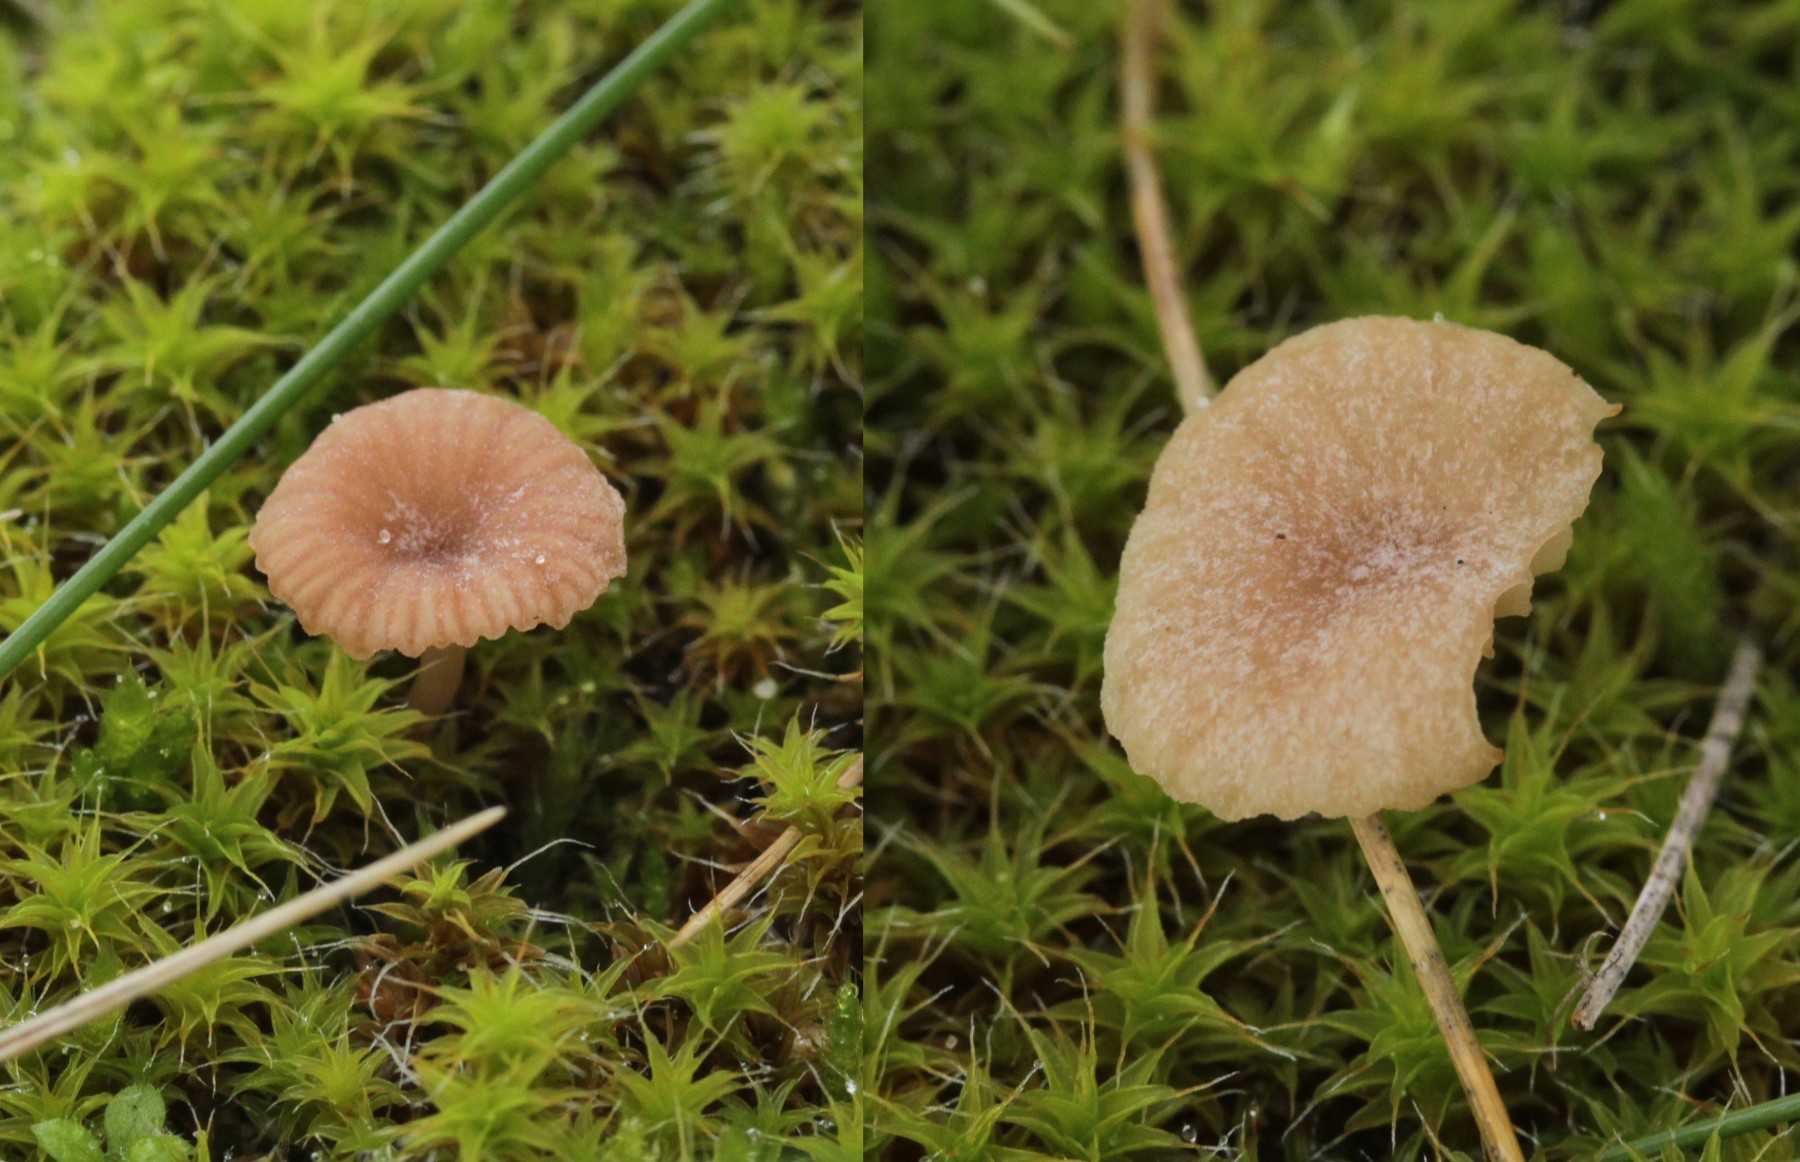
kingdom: Fungi
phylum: Basidiomycota
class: Agaricomycetes
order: Agaricales
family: Tricholomataceae
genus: Omphalina
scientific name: Omphalina
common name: navlehat
